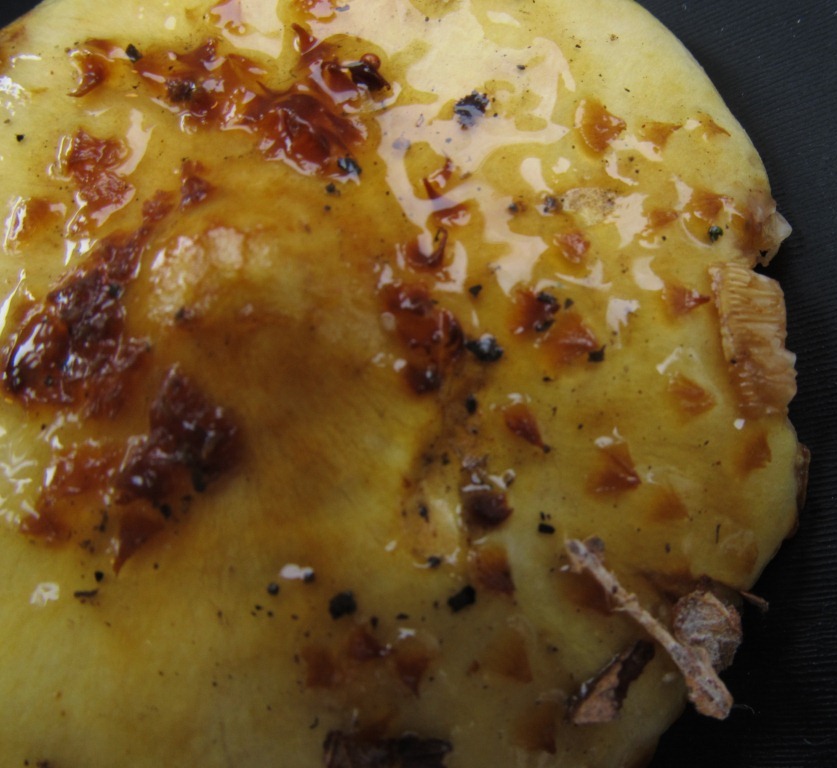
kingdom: Fungi
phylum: Basidiomycota
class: Agaricomycetes
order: Agaricales
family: Strophariaceae
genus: Pholiota
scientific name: Pholiota jahnii
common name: slimet skælhat
